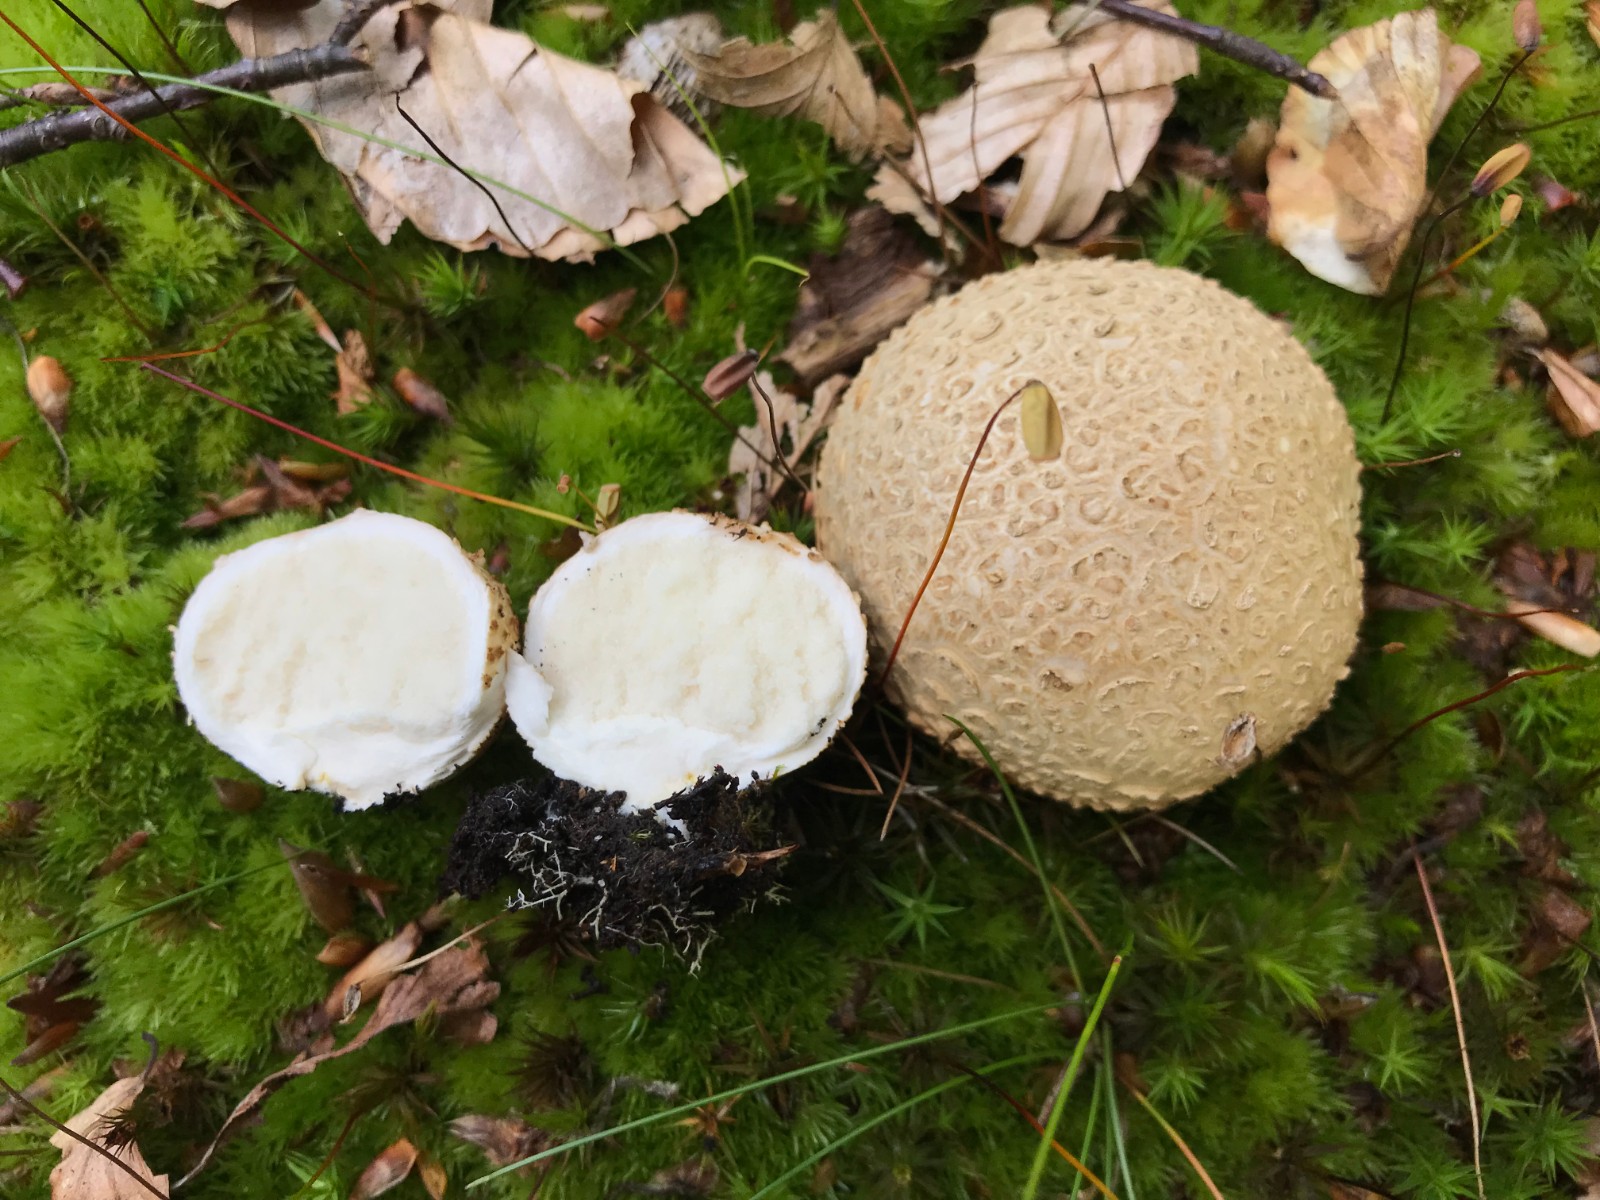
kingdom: Fungi
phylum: Basidiomycota
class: Agaricomycetes
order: Boletales
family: Sclerodermataceae
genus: Scleroderma
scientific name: Scleroderma citrinum
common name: almindelig bruskbold
